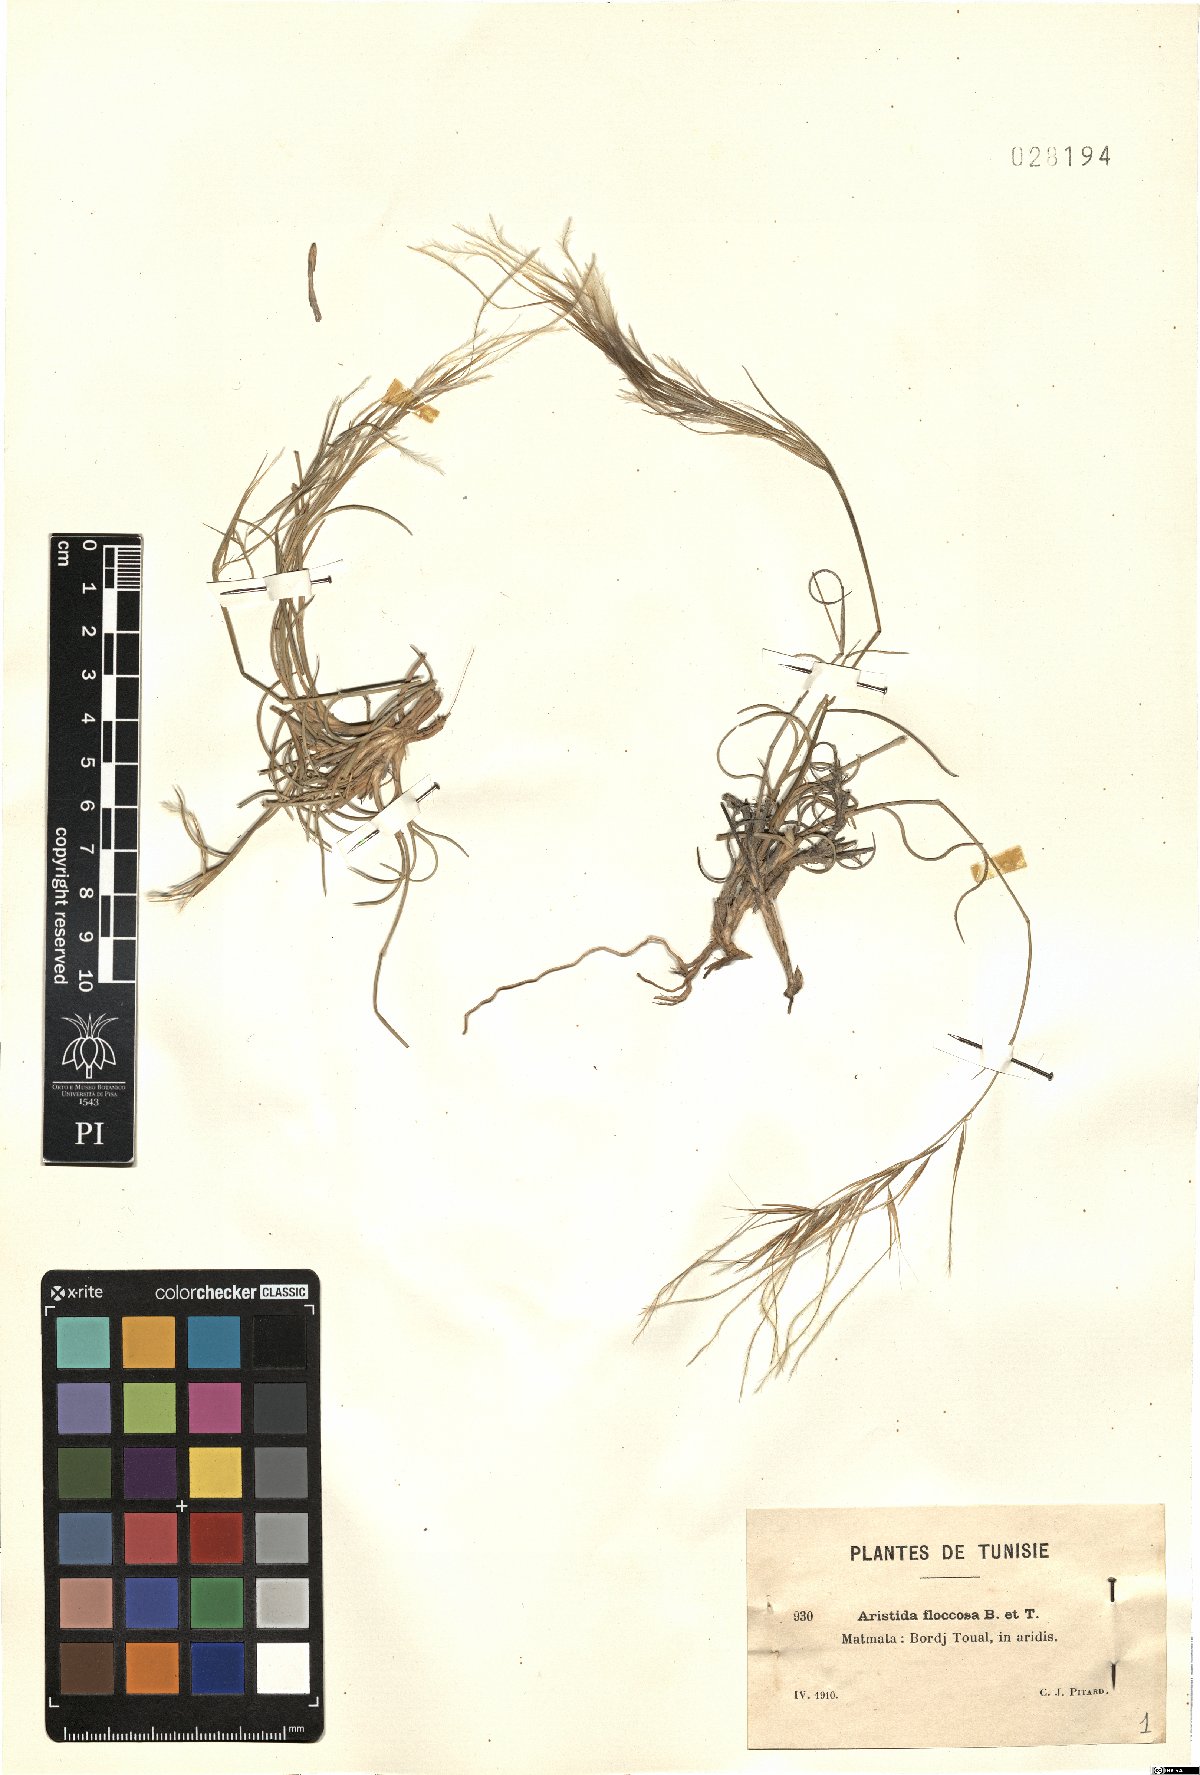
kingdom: Plantae
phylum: Tracheophyta
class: Liliopsida
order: Poales
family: Poaceae
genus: Stipagrostis
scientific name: Stipagrostis plumosa
